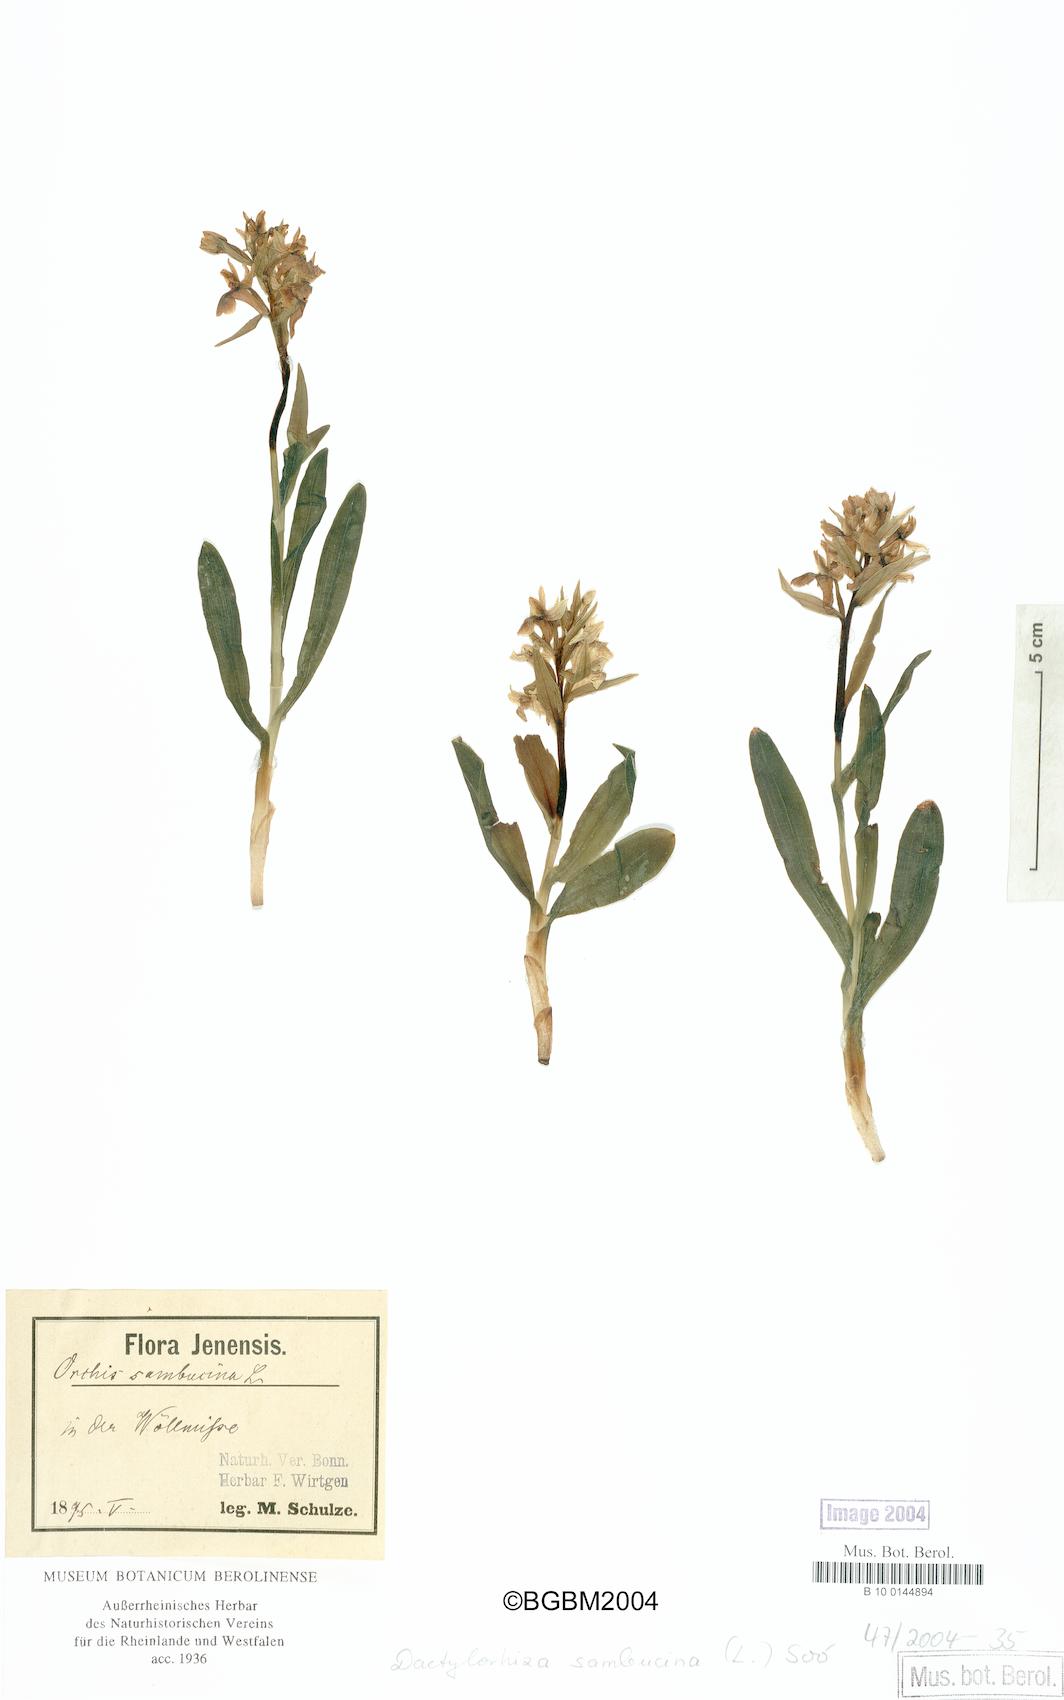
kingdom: Plantae
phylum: Tracheophyta
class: Liliopsida
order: Asparagales
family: Orchidaceae
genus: Dactylorhiza
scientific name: Dactylorhiza sambucina
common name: Elder-flowered orchid
